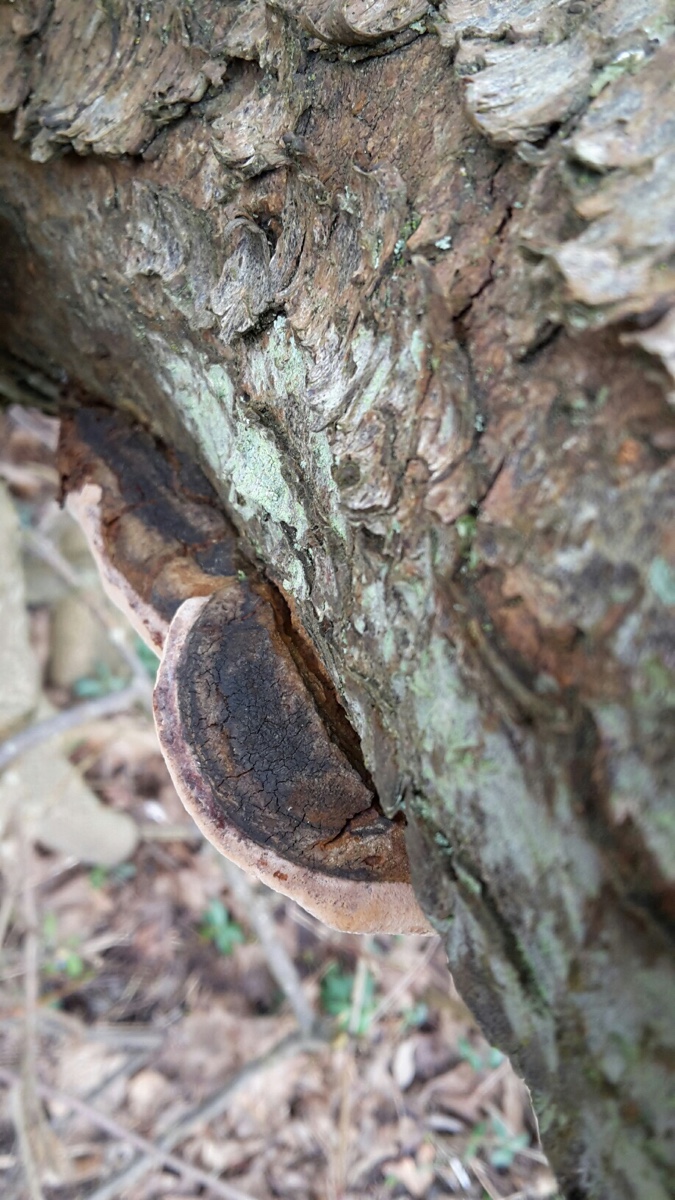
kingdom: Fungi
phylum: Basidiomycota
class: Agaricomycetes
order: Hymenochaetales
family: Hymenochaetaceae
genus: Phellinus
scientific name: Phellinus pomaceus
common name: blomme-ildporesvamp
